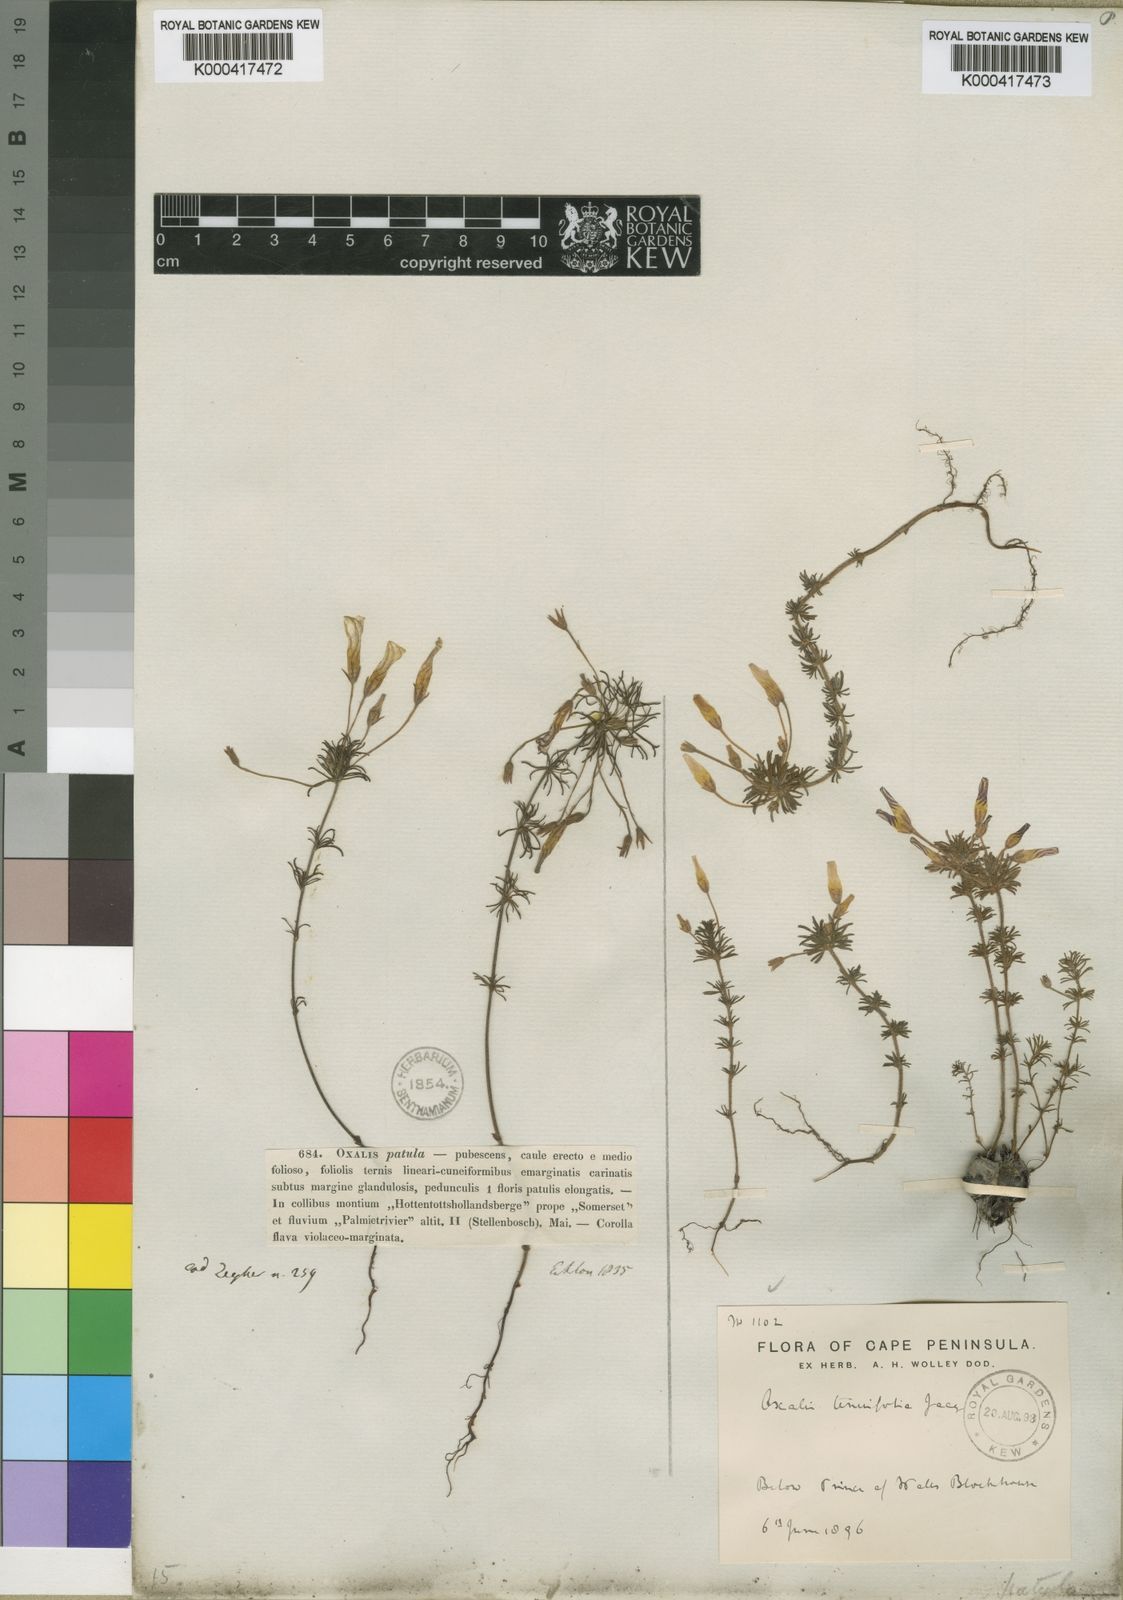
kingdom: Plantae
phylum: Tracheophyta
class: Magnoliopsida
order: Oxalidales
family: Oxalidaceae
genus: Oxalis
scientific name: Oxalis tenuifolia
